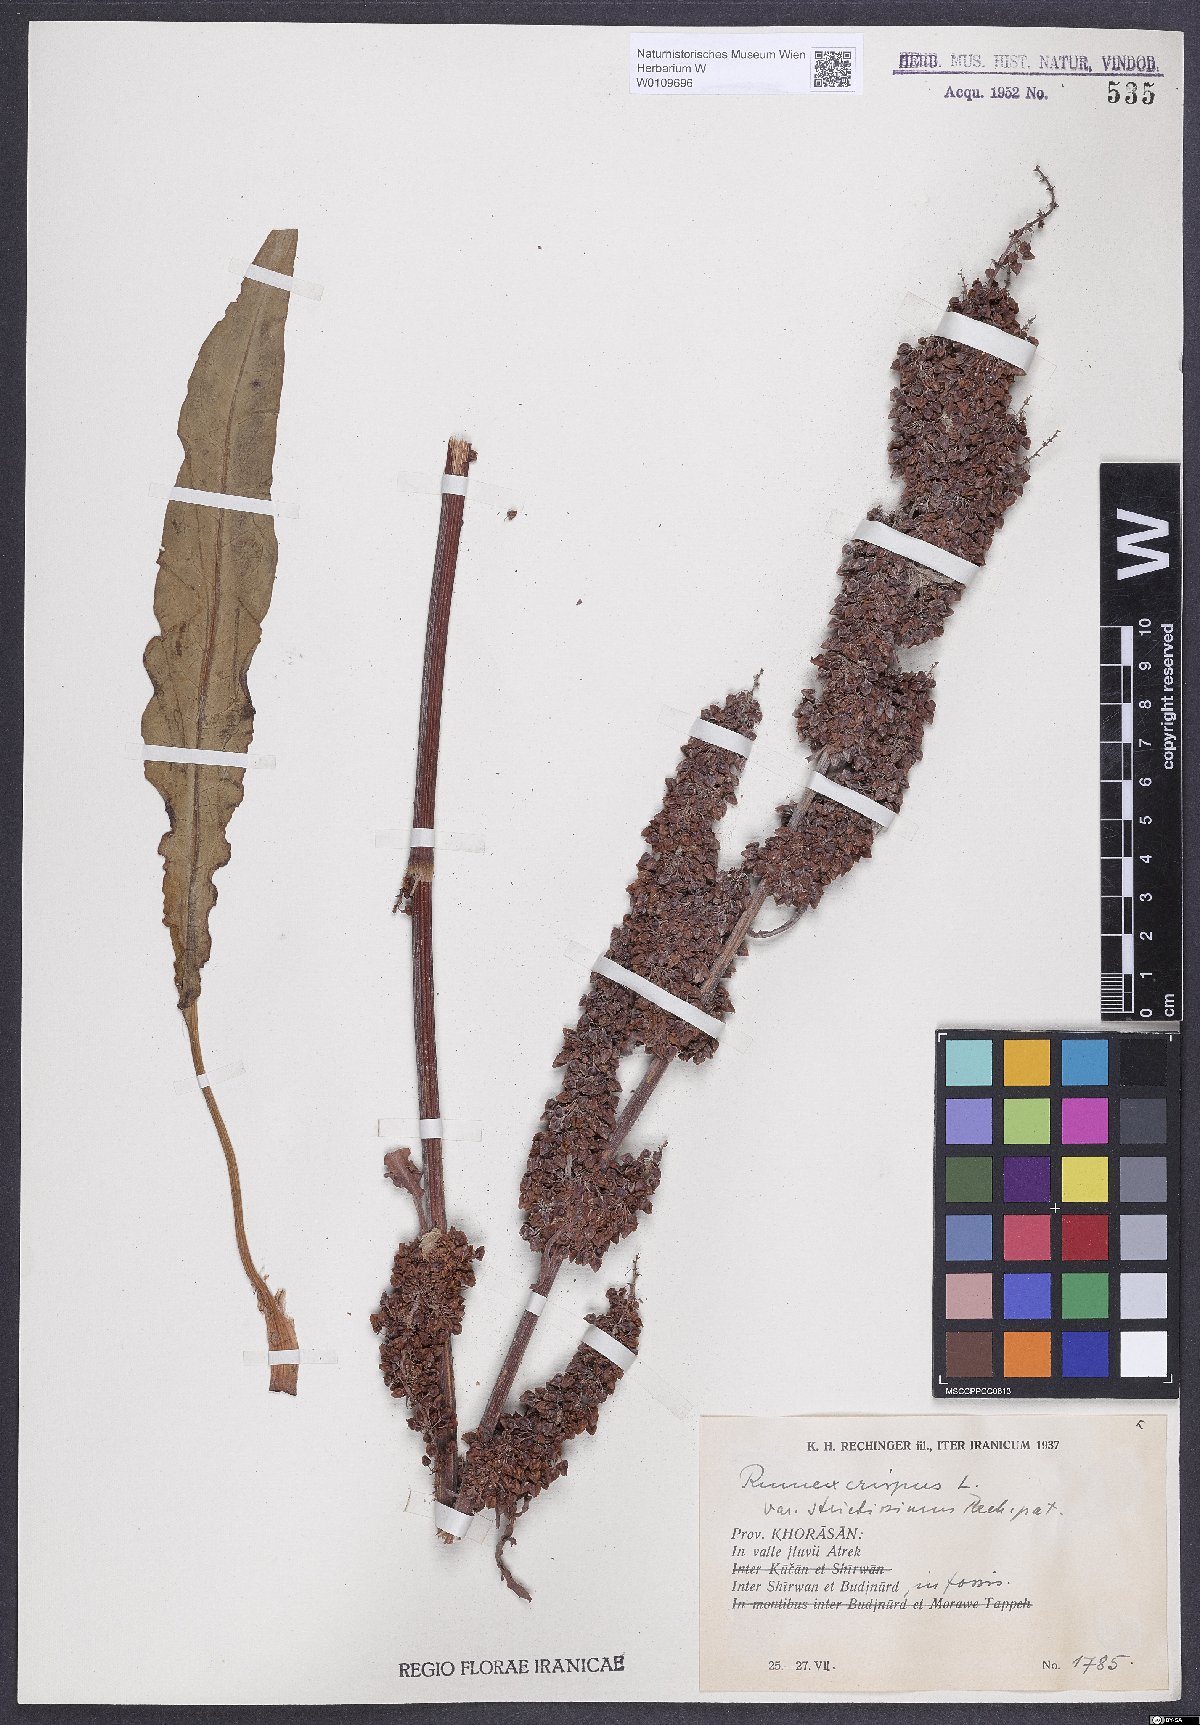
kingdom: Plantae
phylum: Tracheophyta
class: Magnoliopsida
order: Caryophyllales
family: Polygonaceae
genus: Rumex
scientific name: Rumex crispus
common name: Curled dock
